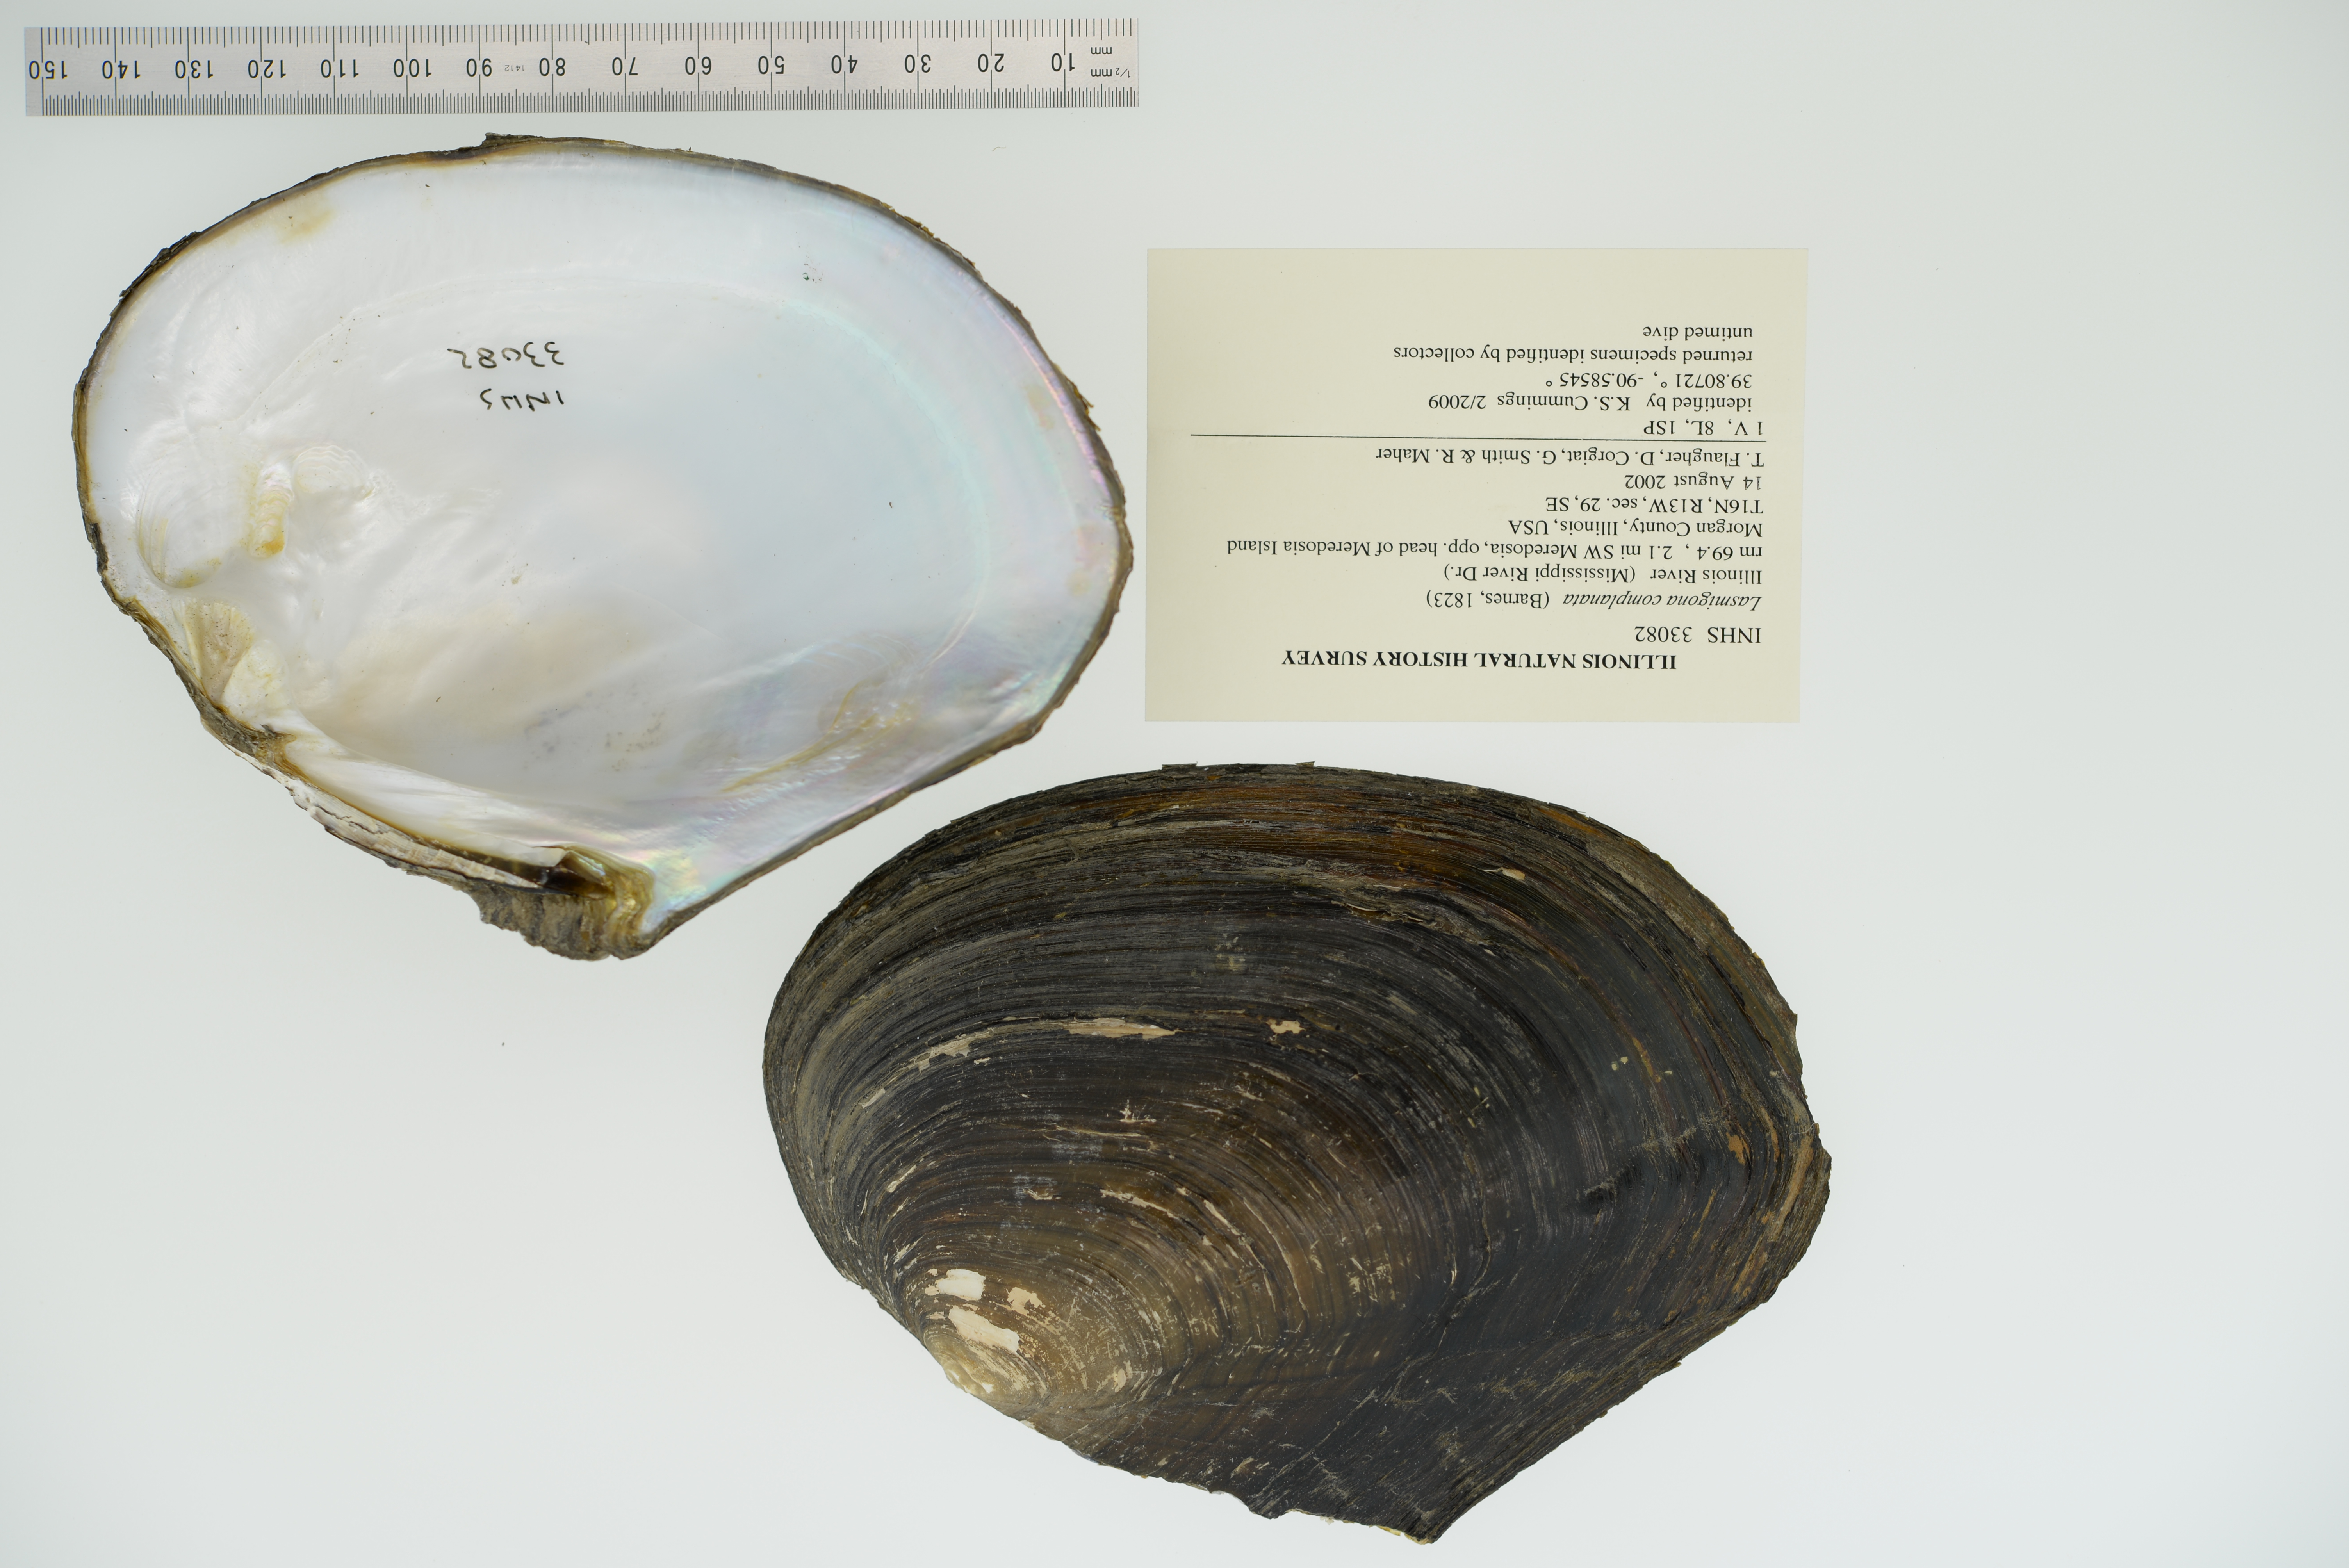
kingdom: Animalia
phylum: Mollusca
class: Bivalvia
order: Unionida
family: Unionidae
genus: Lasmigona
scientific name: Lasmigona complanata
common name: White heelsplitter
